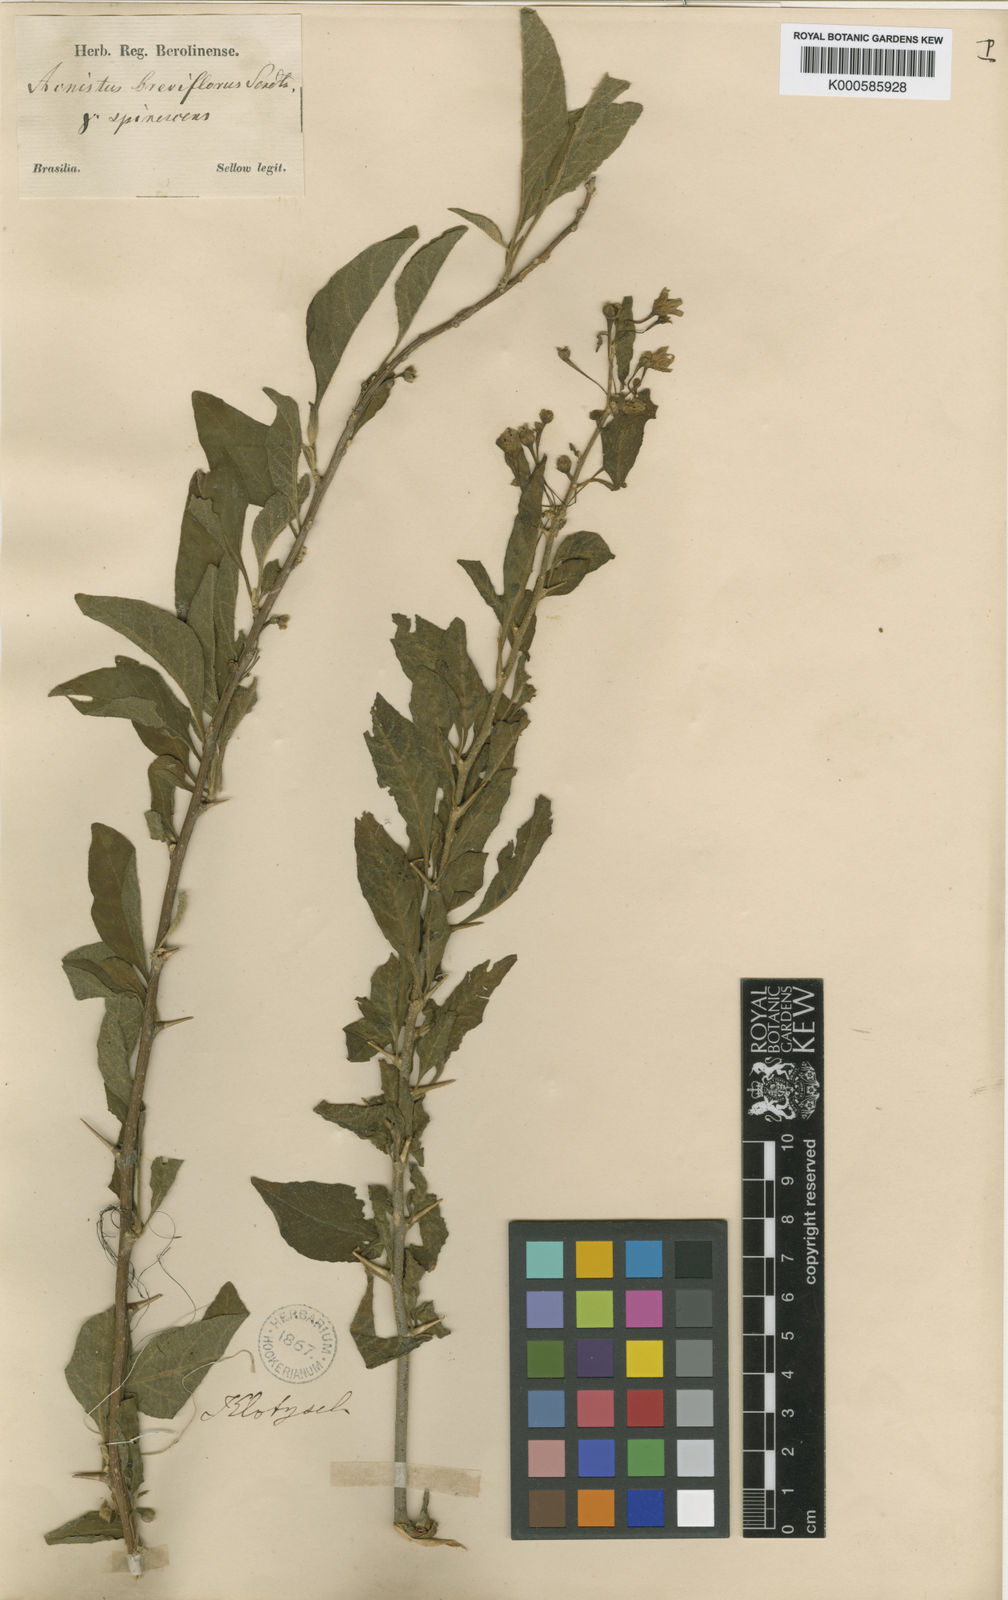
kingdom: Plantae
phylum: Tracheophyta
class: Magnoliopsida
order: Solanales
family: Solanaceae
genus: Vassobia
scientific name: Vassobia breviflora
